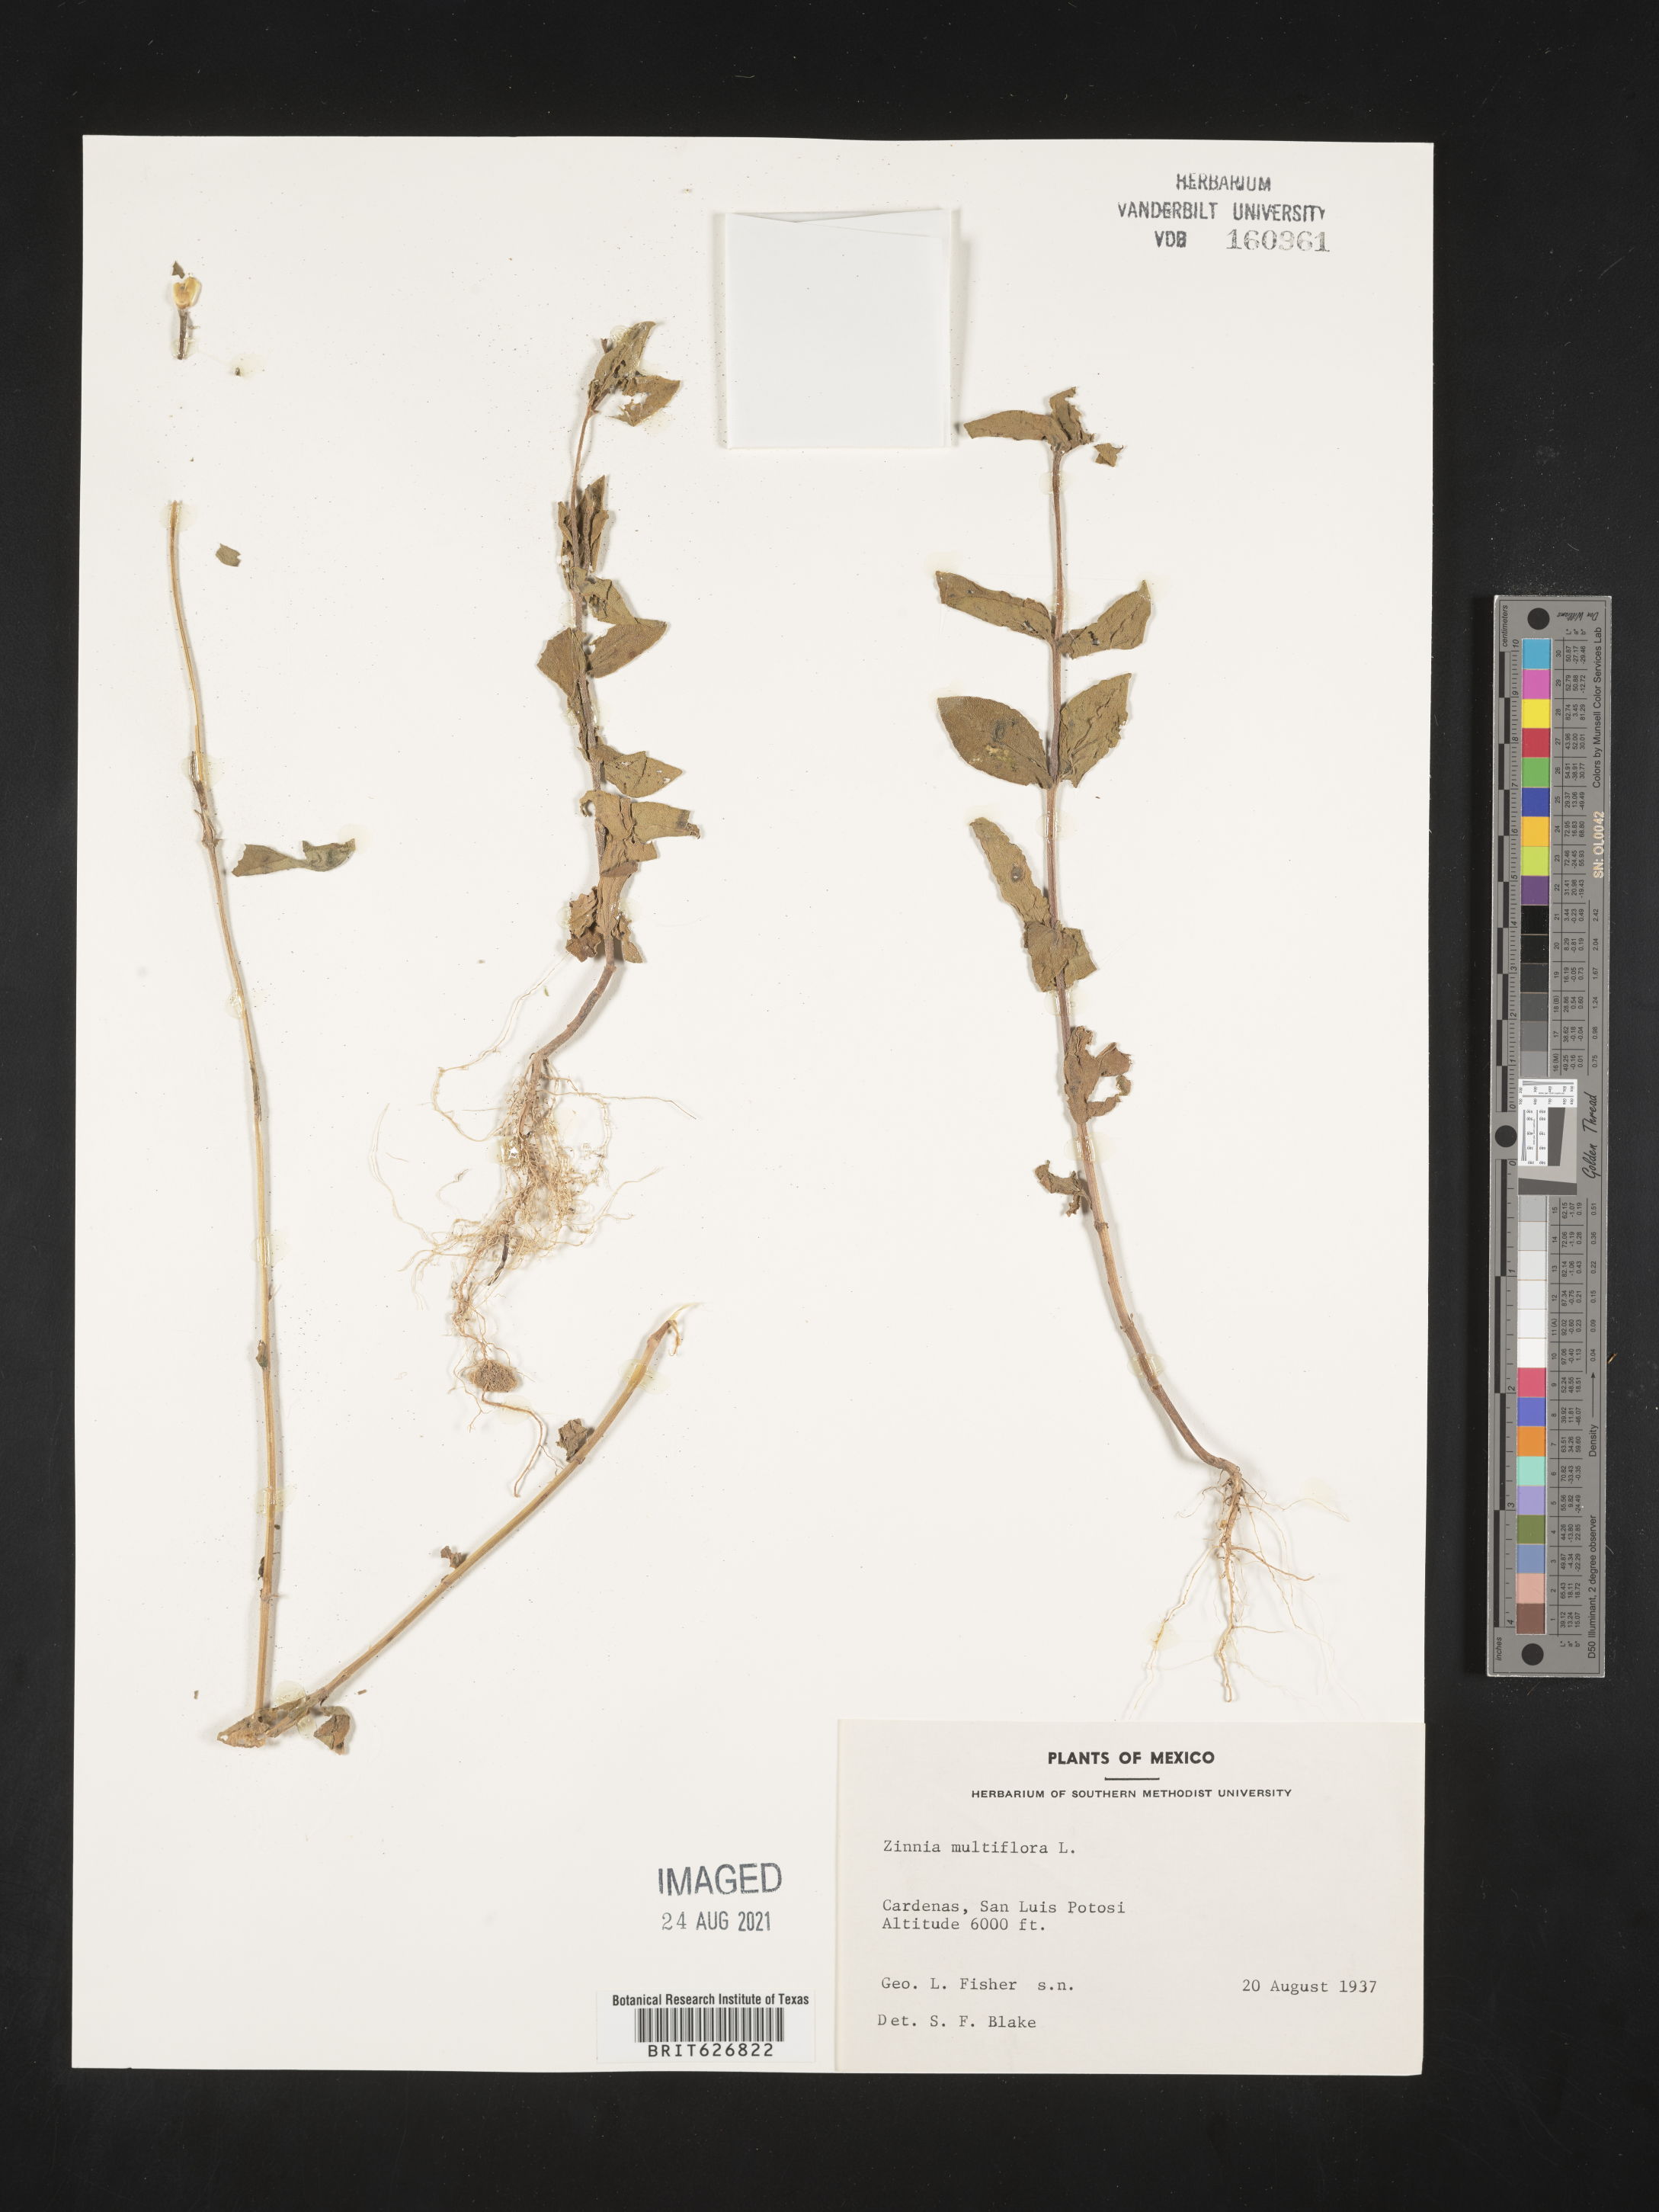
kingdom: Plantae
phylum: Tracheophyta
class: Magnoliopsida
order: Asterales
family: Asteraceae
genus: Zinnia
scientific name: Zinnia
